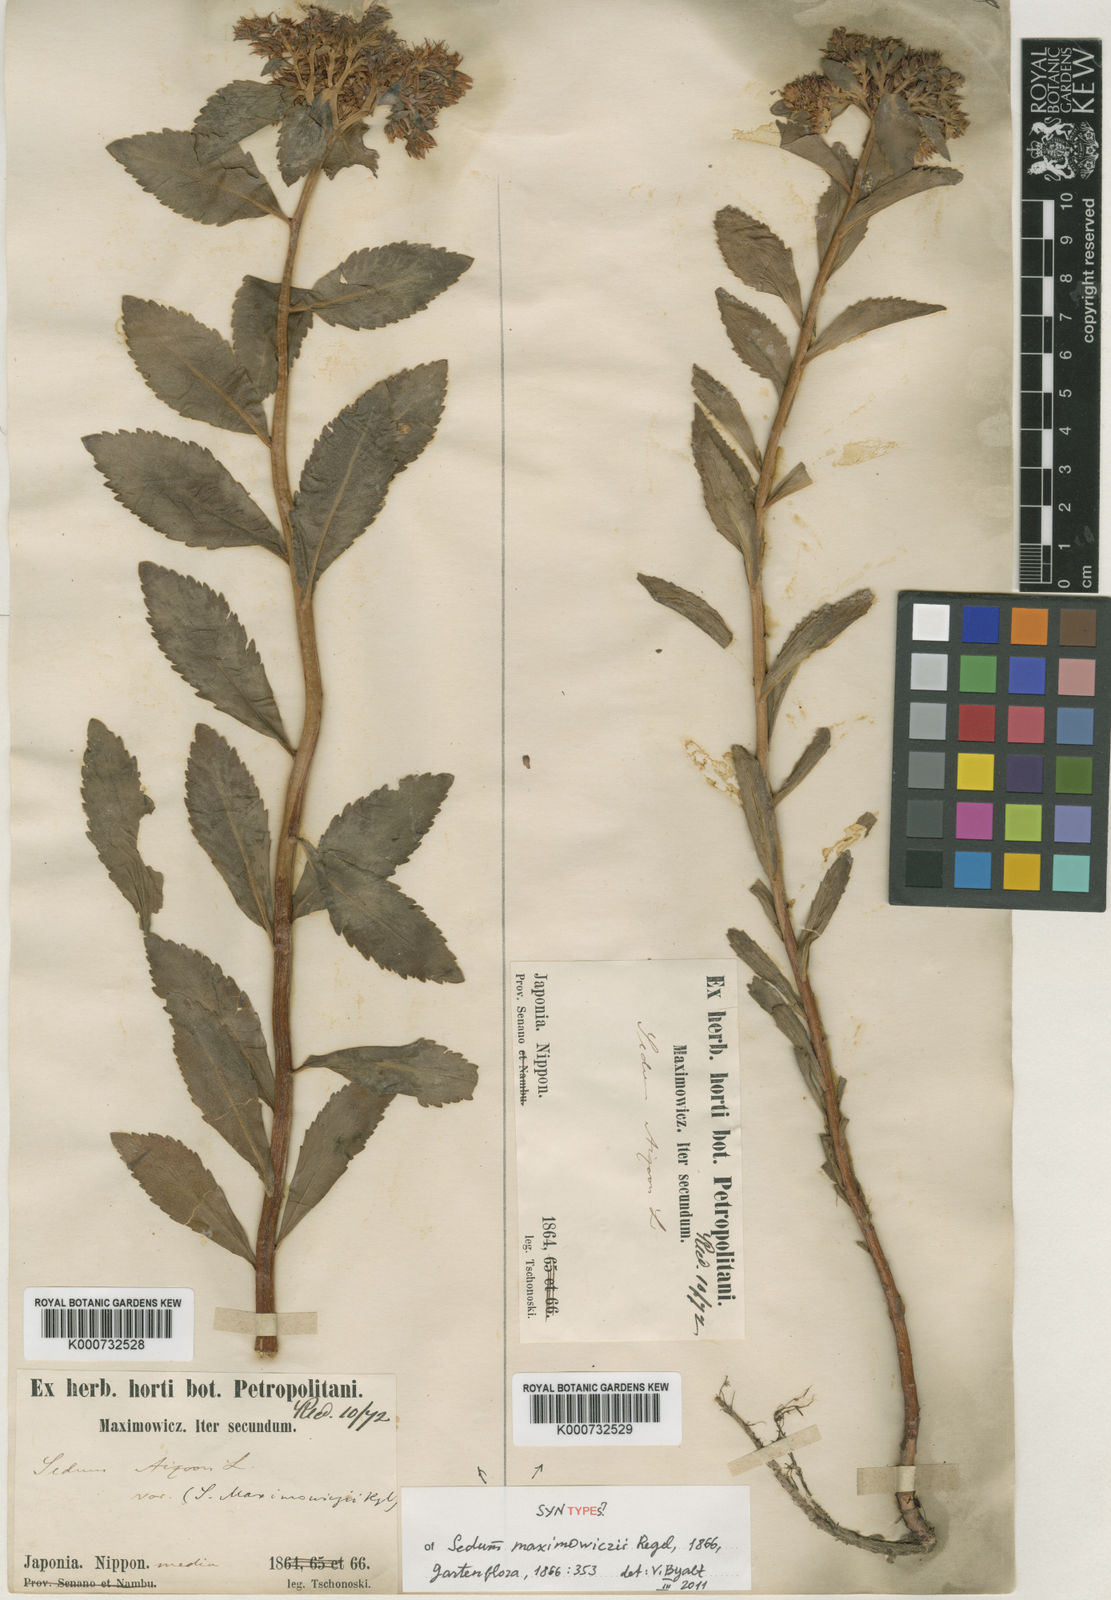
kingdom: Plantae
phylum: Tracheophyta
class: Magnoliopsida
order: Saxifragales
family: Crassulaceae
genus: Phedimus
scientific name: Phedimus aizoon
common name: Orpin aizoon
